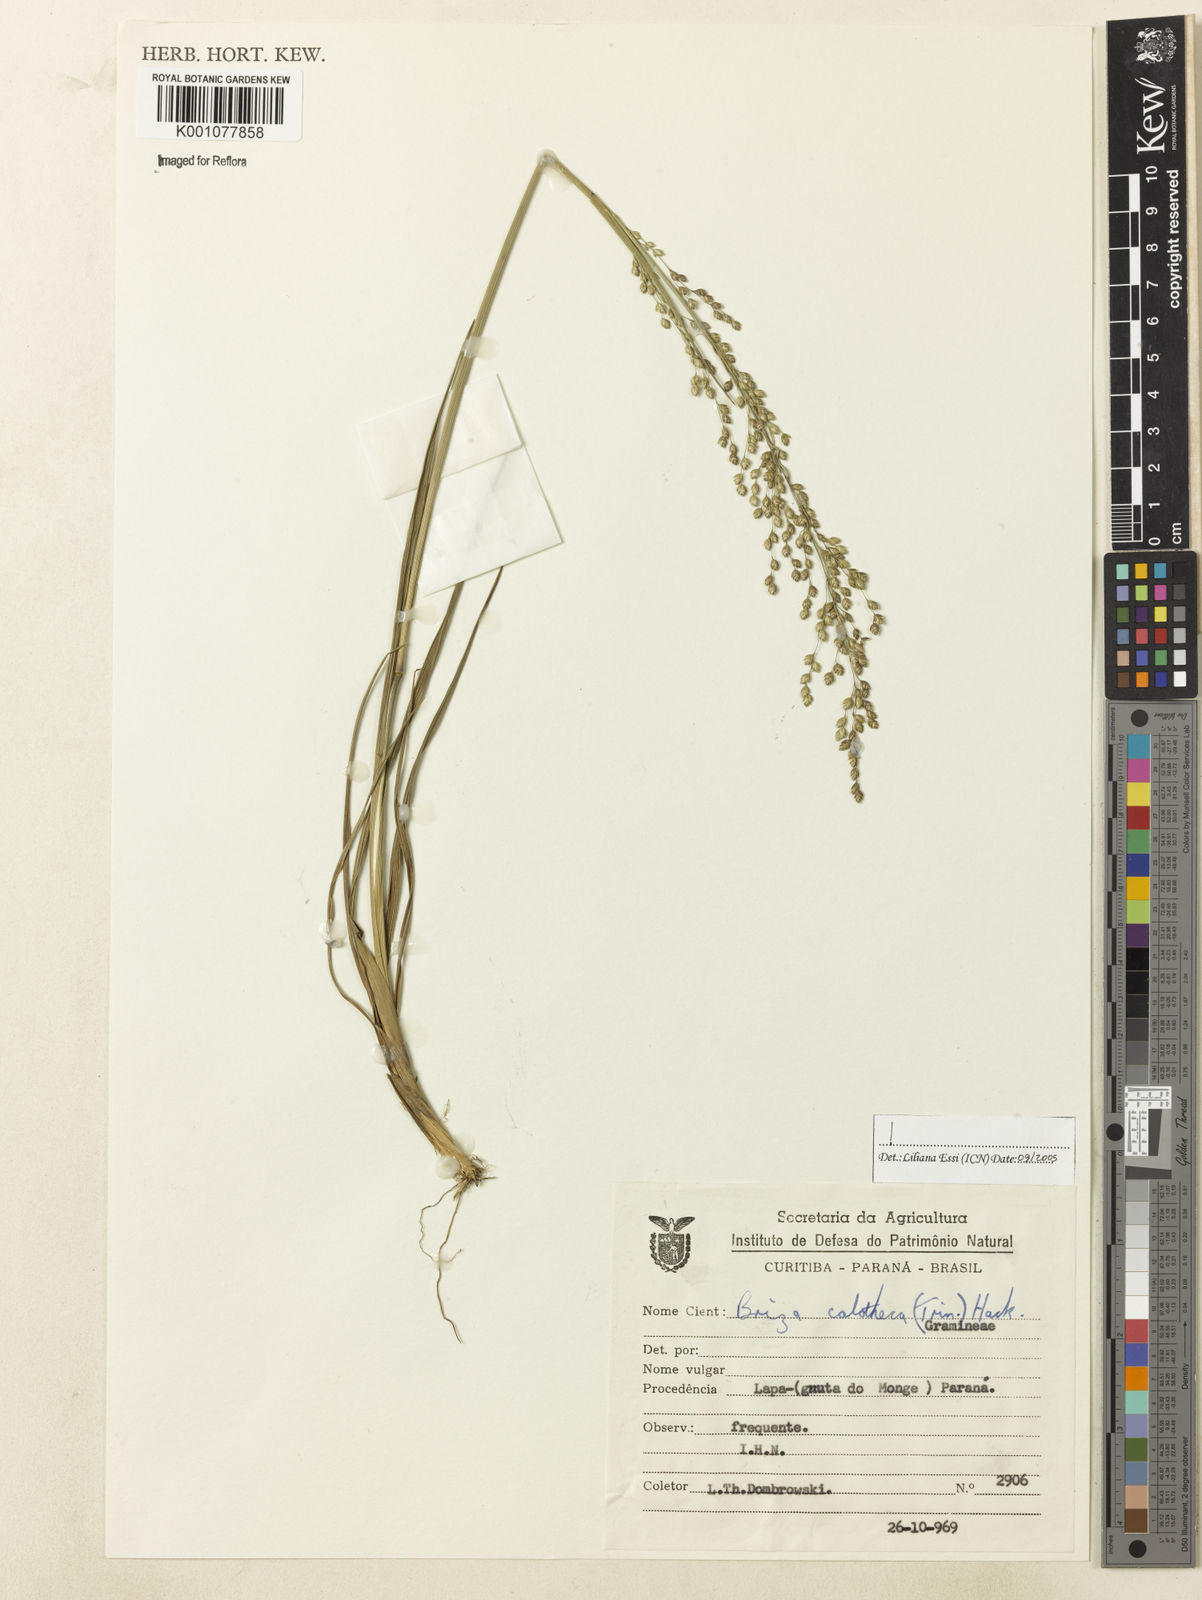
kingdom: Plantae
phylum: Tracheophyta
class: Liliopsida
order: Poales
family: Poaceae
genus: Poidium
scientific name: Poidium calotheca
